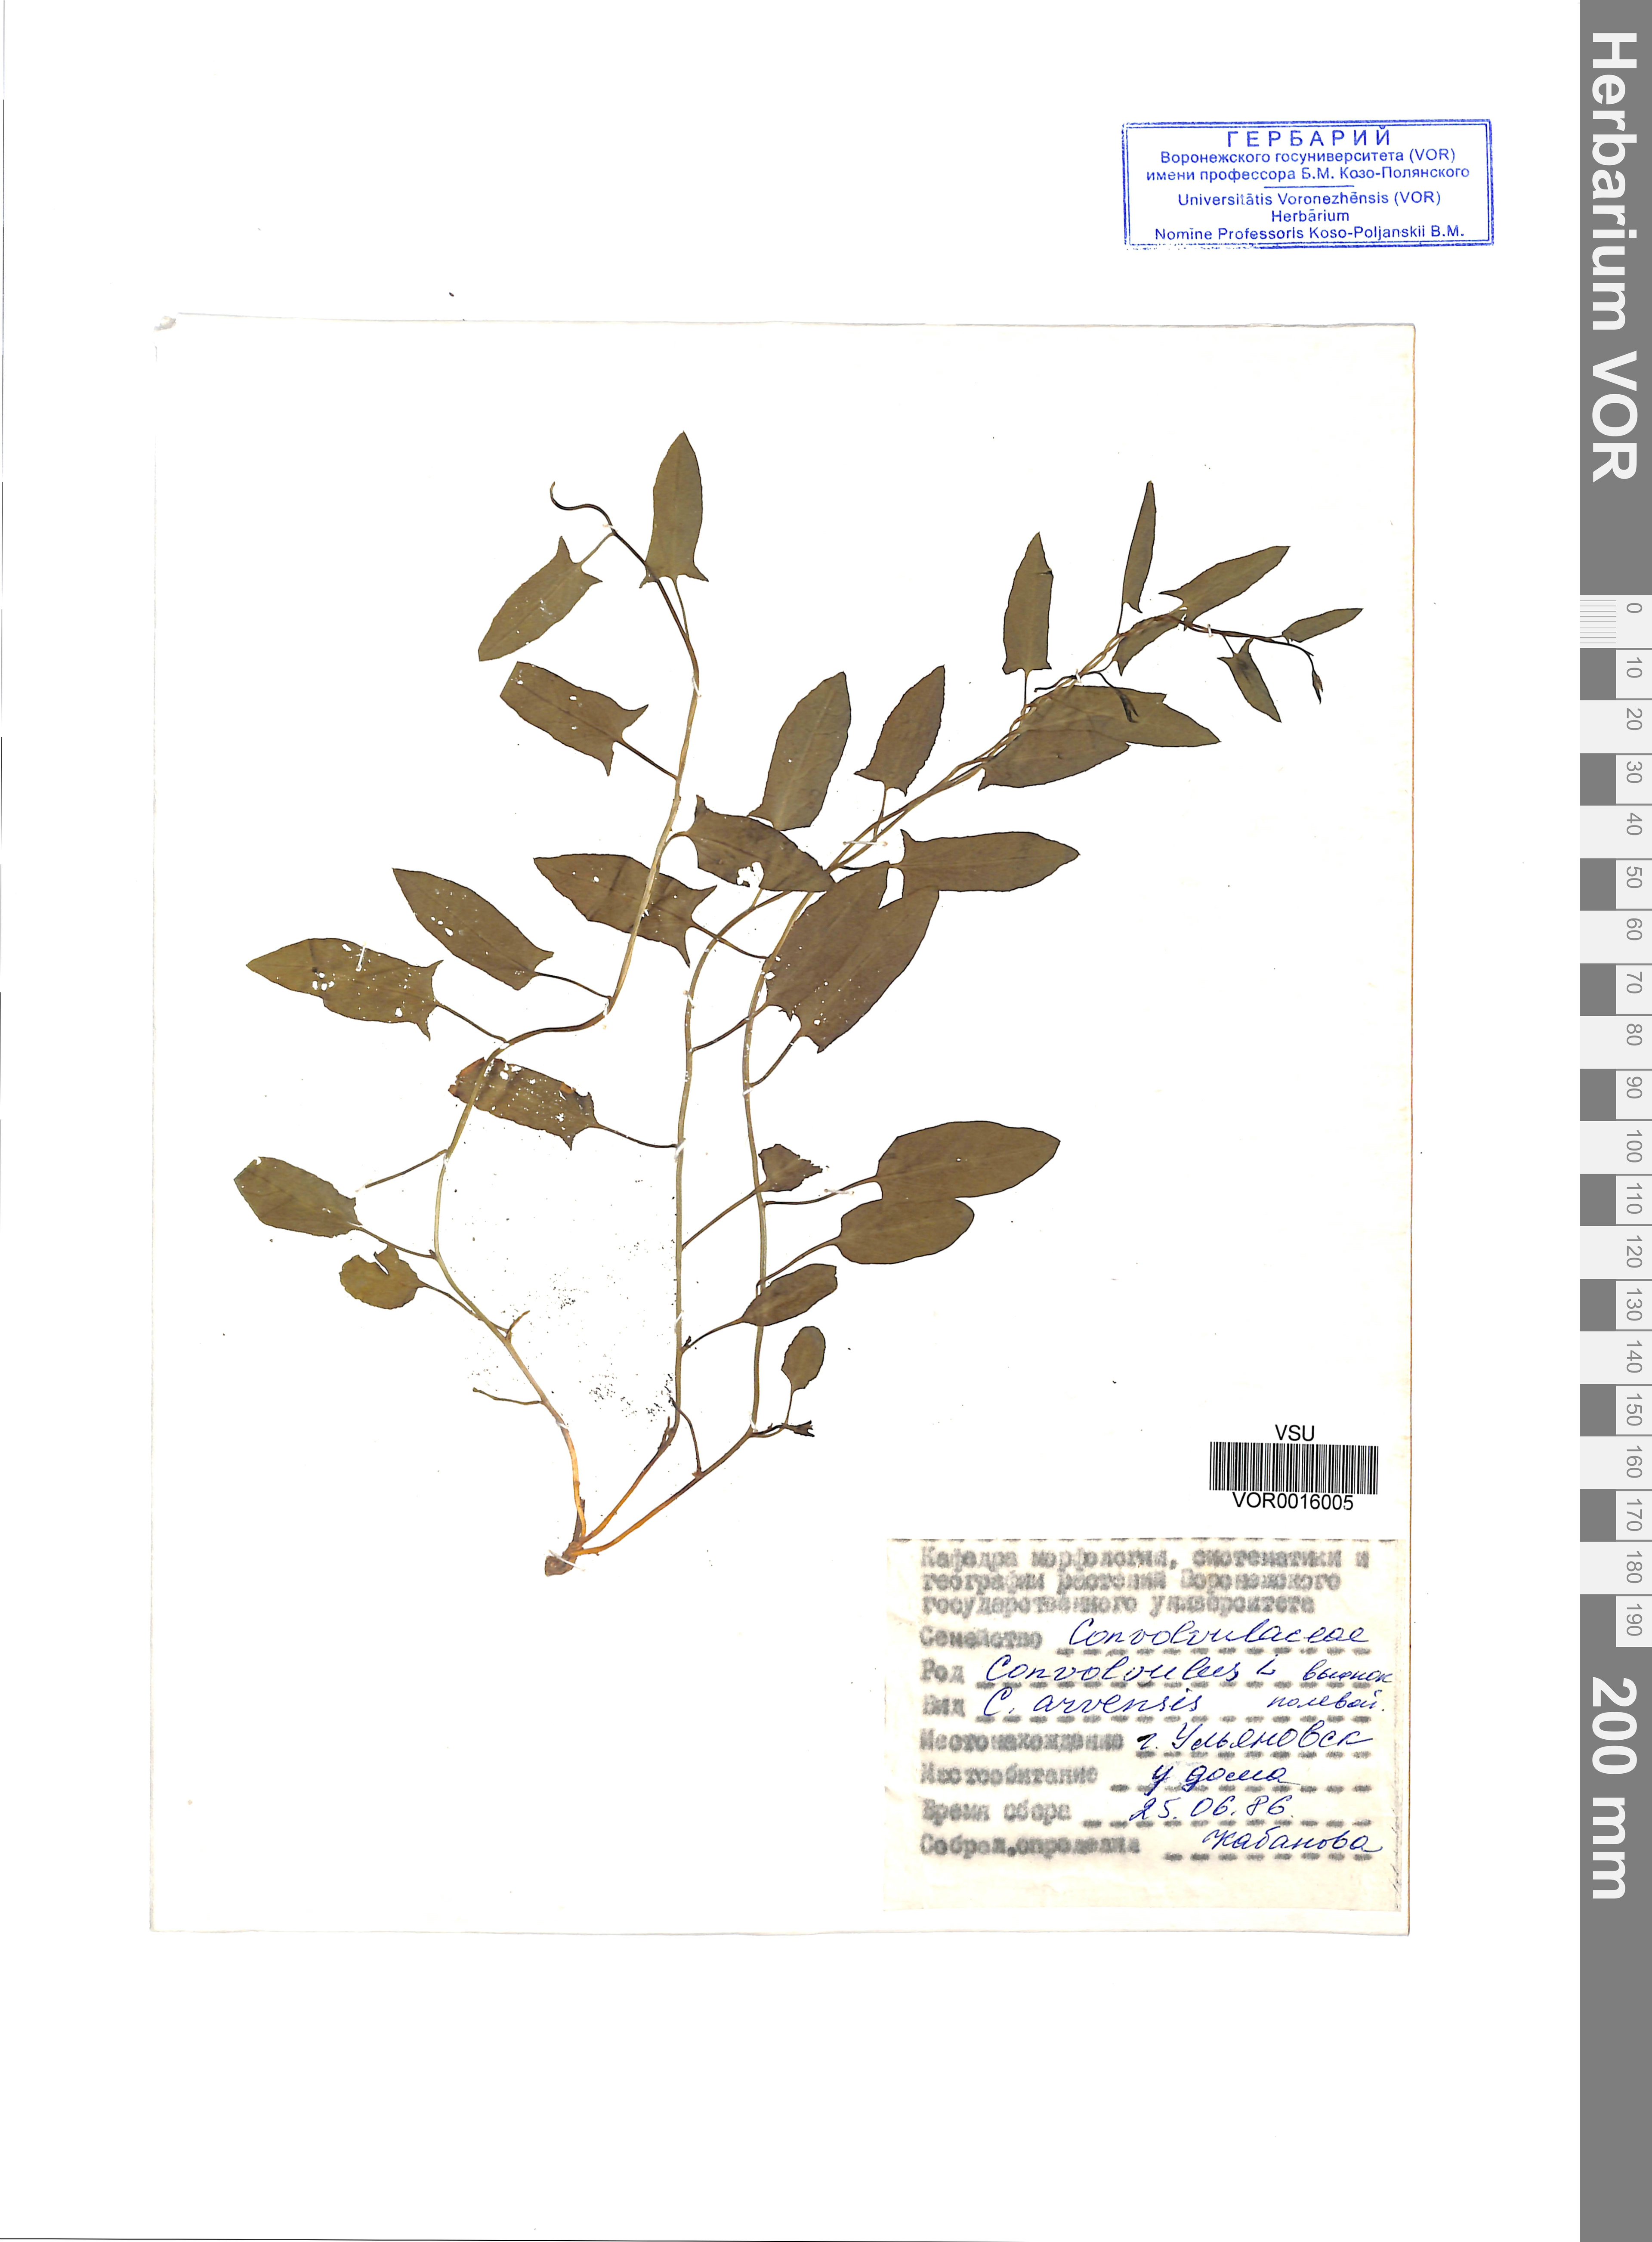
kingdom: Plantae
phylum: Tracheophyta
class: Magnoliopsida
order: Solanales
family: Convolvulaceae
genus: Convolvulus
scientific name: Convolvulus arvensis
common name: Field bindweed
